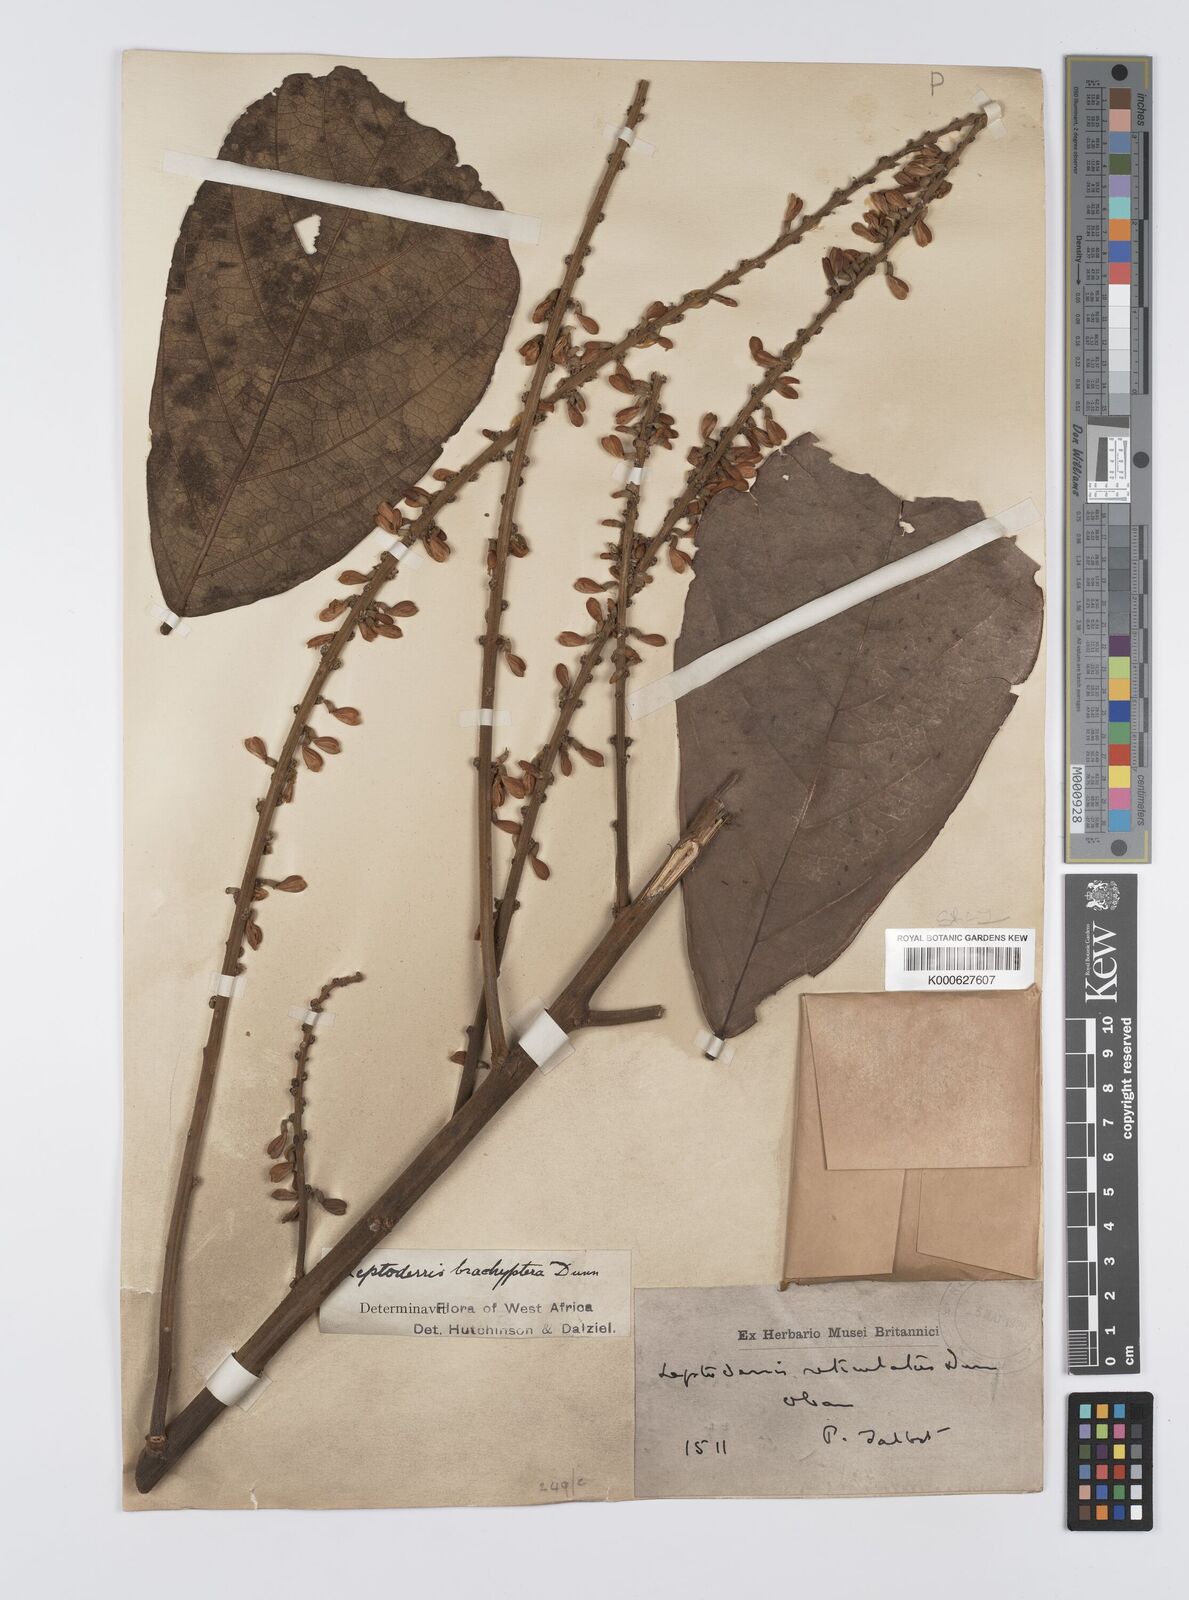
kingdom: Plantae
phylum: Tracheophyta
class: Magnoliopsida
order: Fabales
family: Fabaceae
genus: Leptoderris
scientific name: Leptoderris brachyptera
